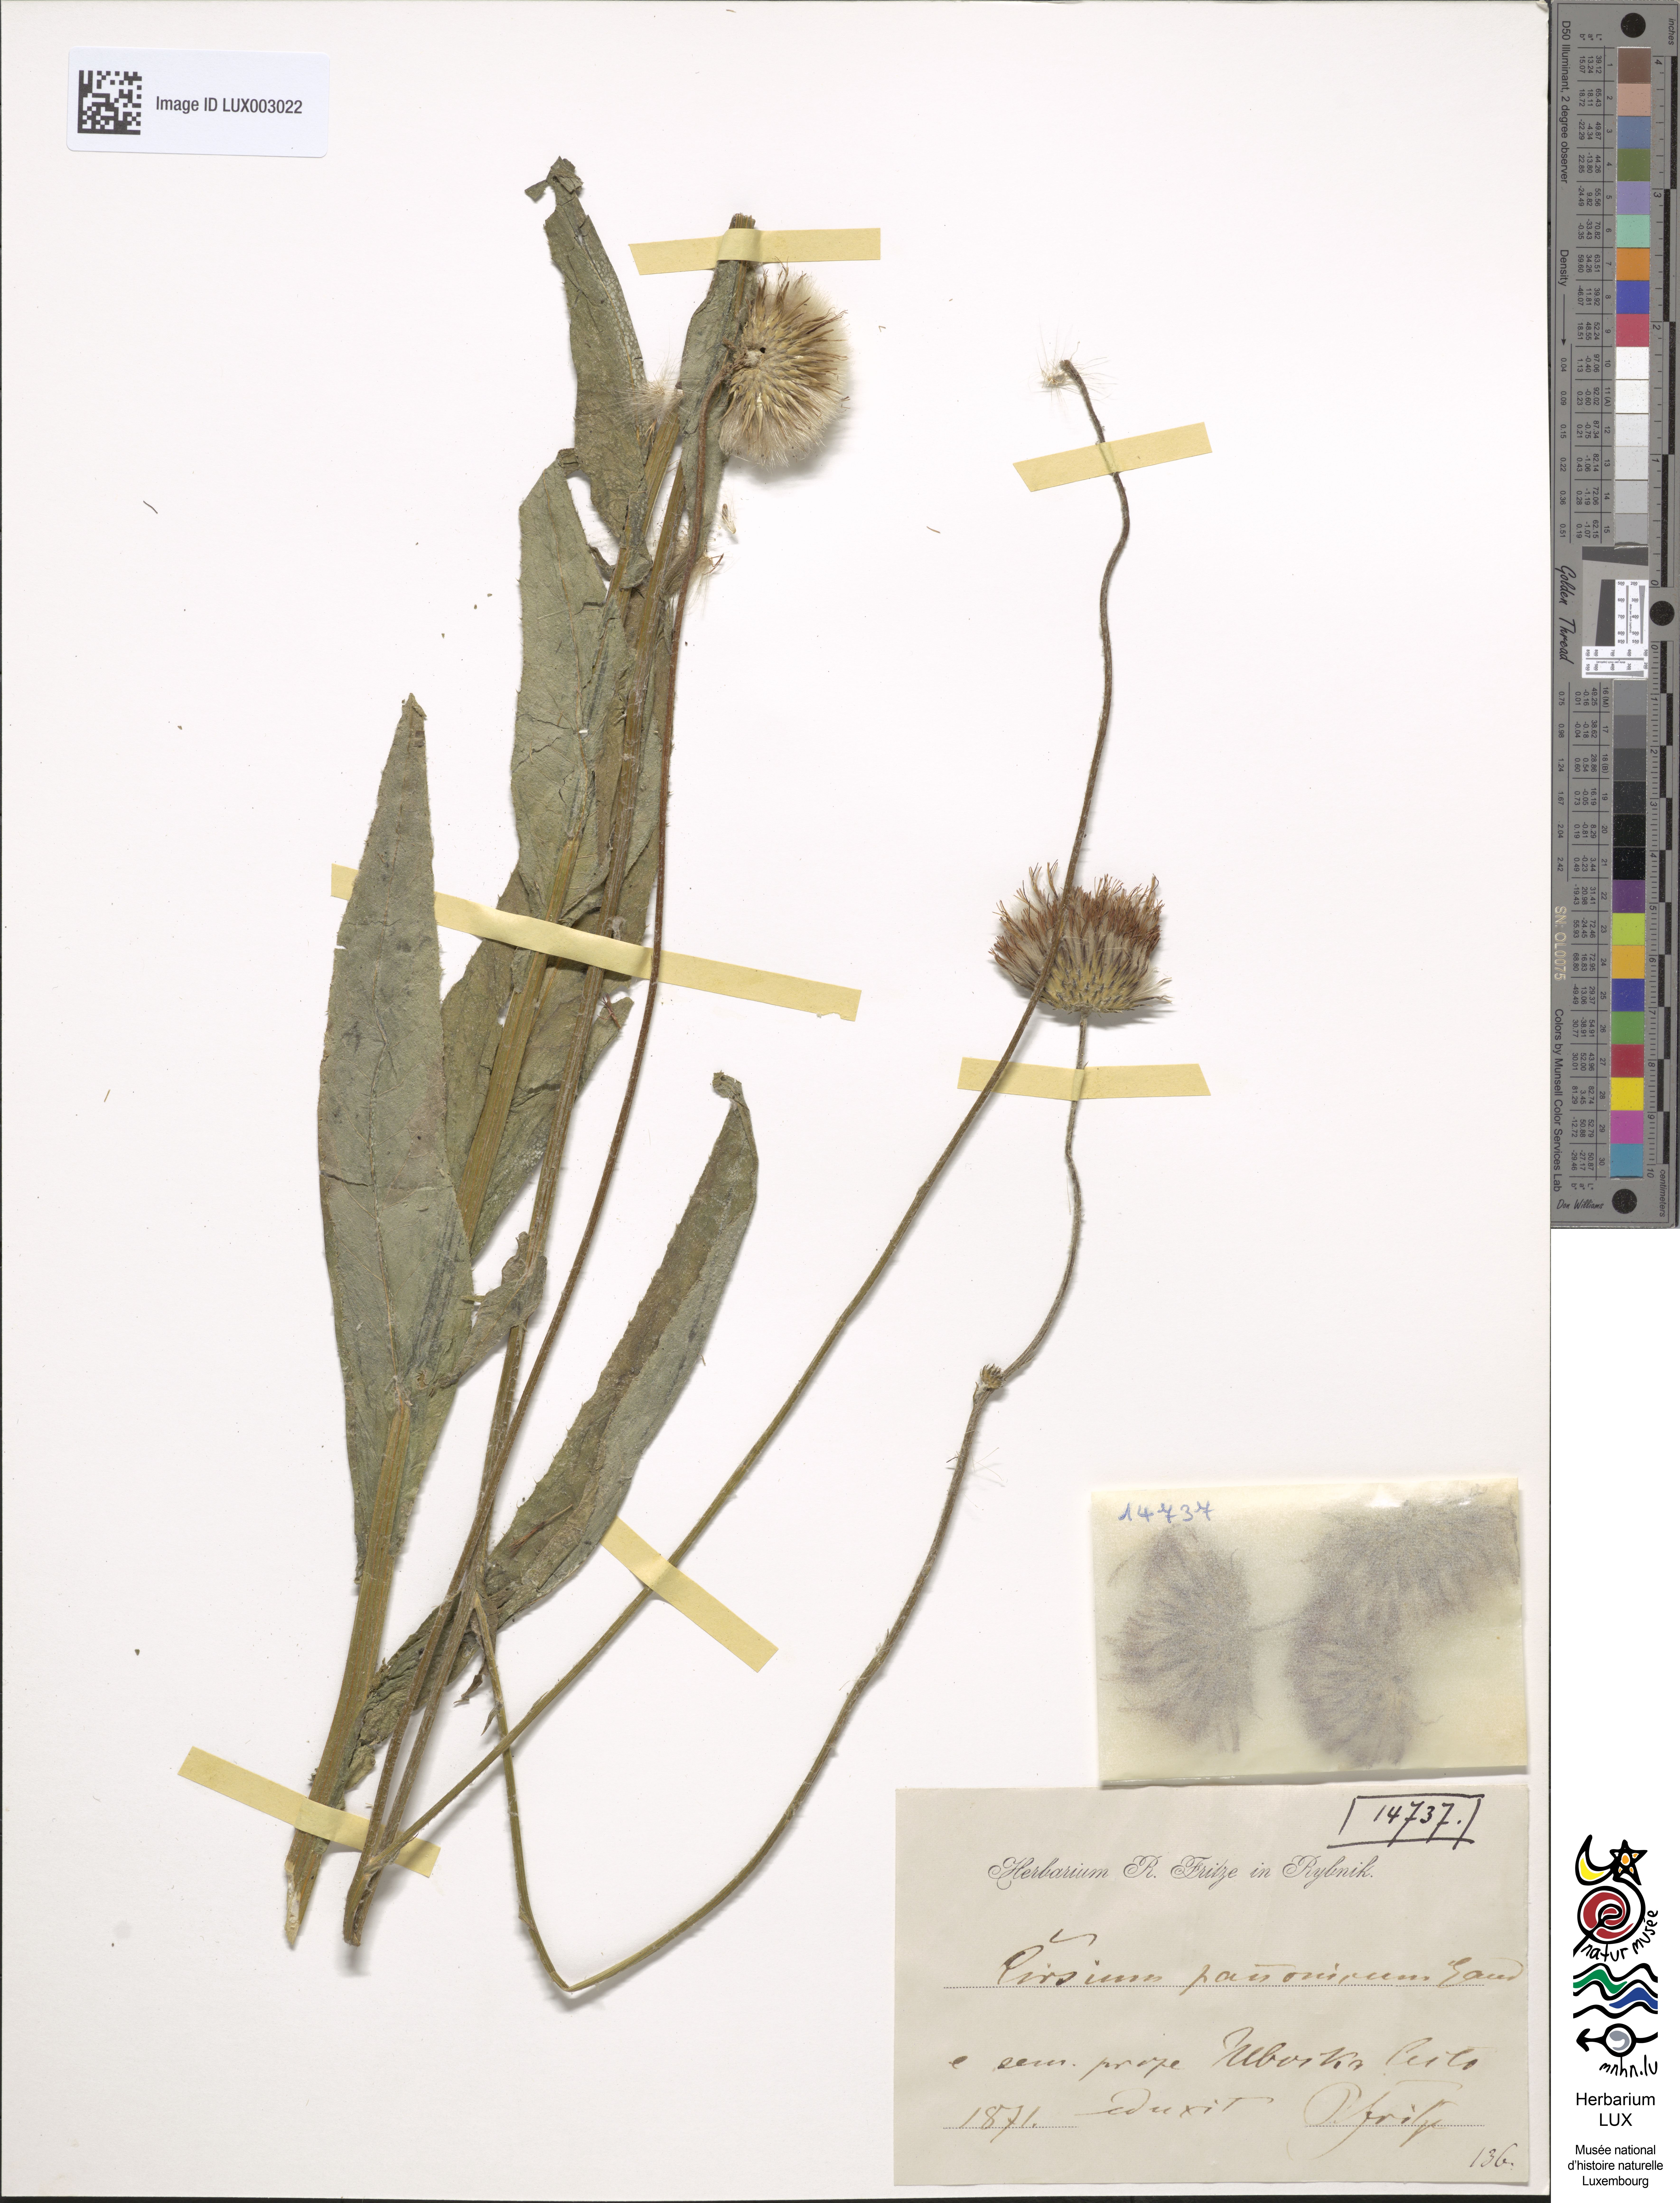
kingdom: Plantae
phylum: Tracheophyta
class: Magnoliopsida
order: Asterales
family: Asteraceae
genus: Cirsium
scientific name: Cirsium pannonicum
